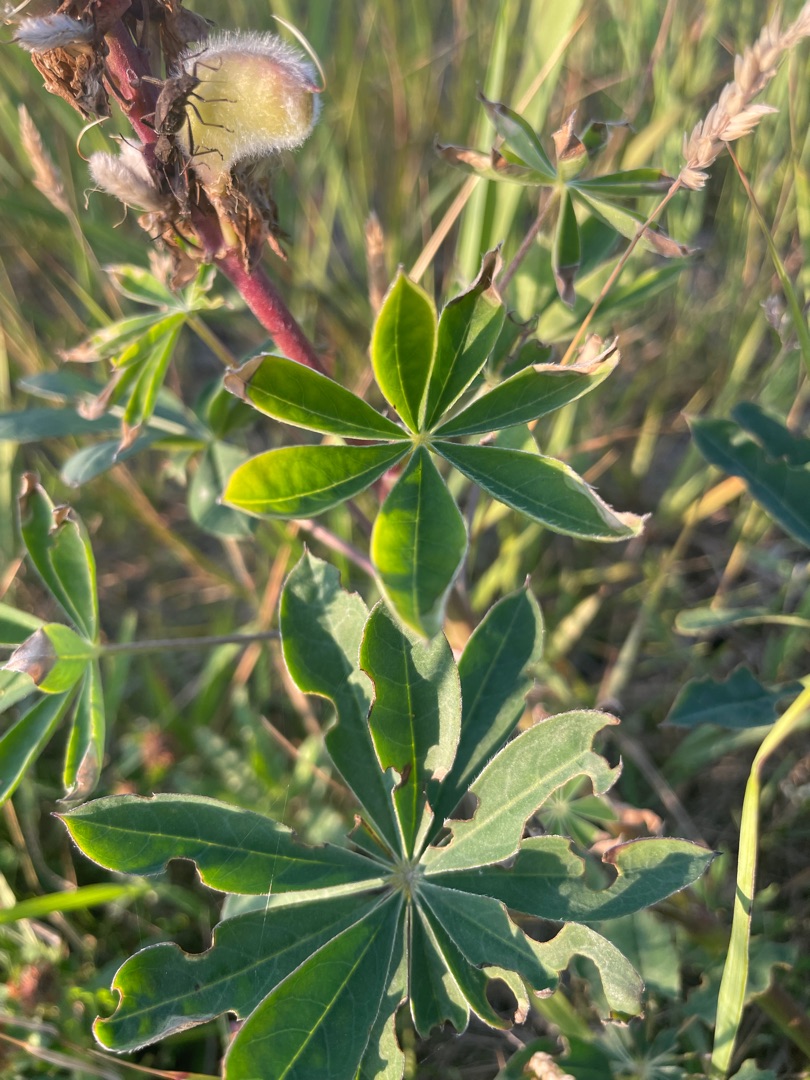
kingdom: Plantae
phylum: Tracheophyta
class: Magnoliopsida
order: Fabales
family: Fabaceae
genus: Lupinus
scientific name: Lupinus polyphyllus
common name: Mangebladet lupin
